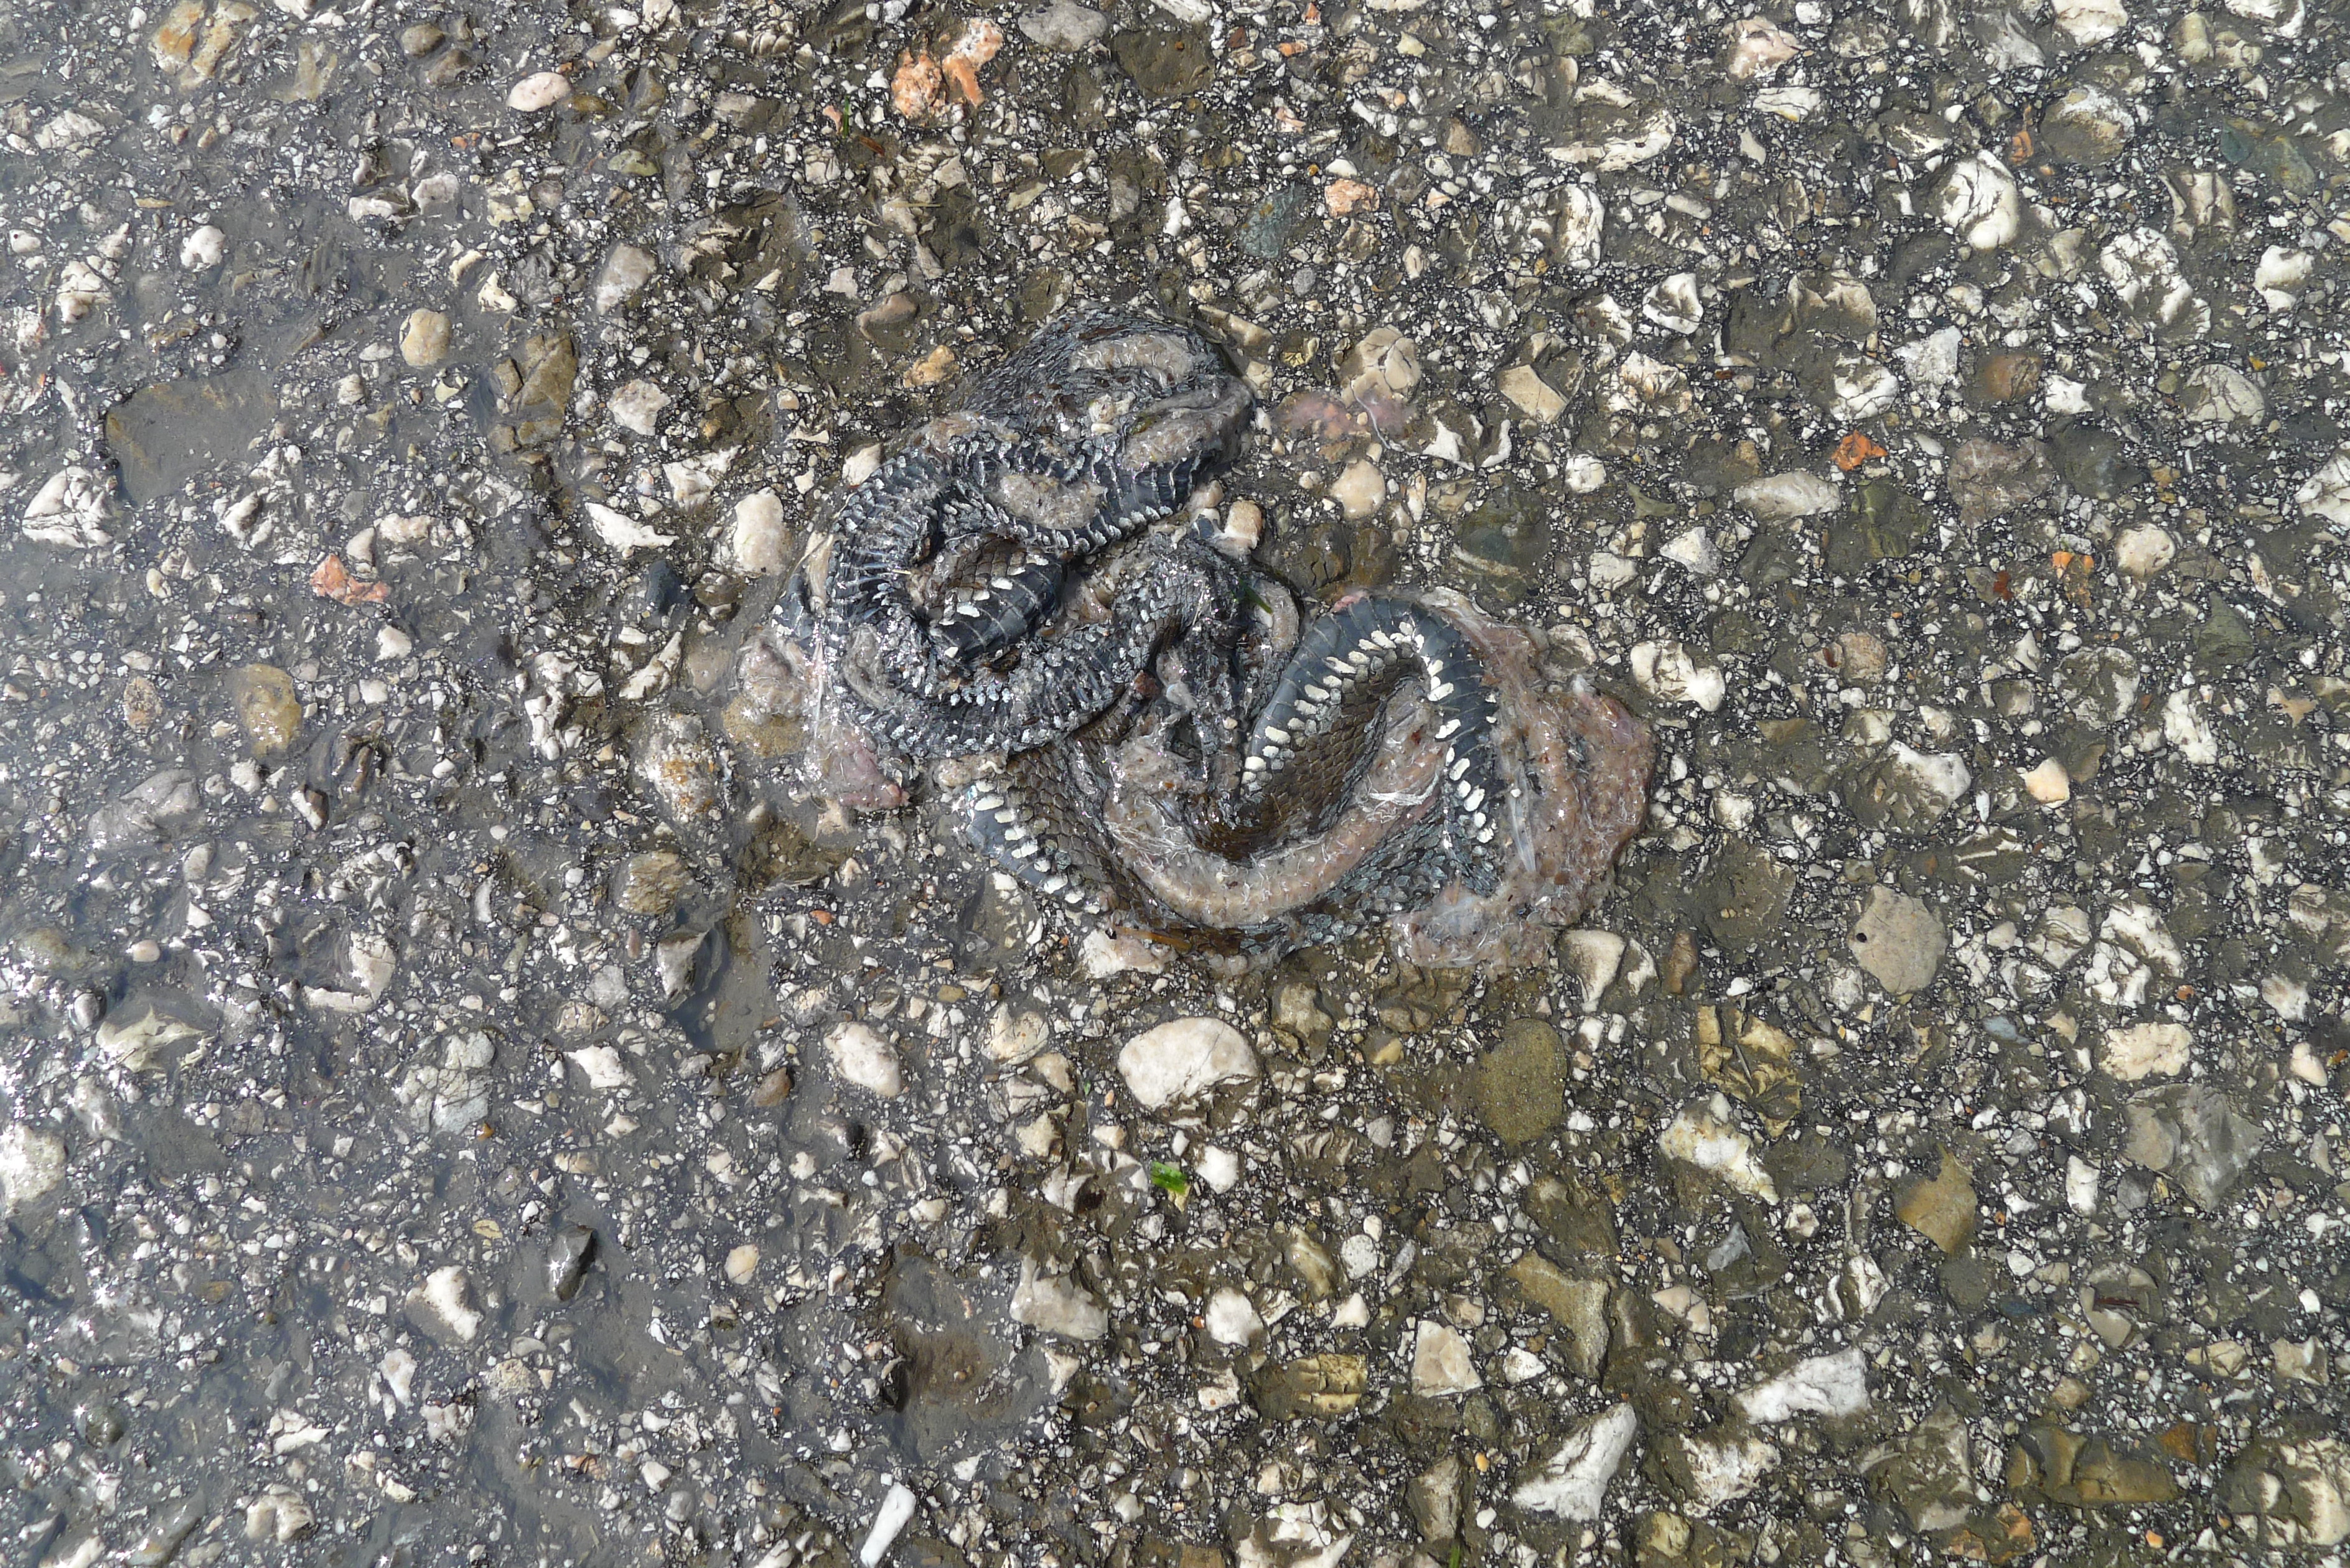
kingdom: Animalia
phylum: Chordata
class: Squamata
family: Colubridae
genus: Natrix
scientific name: Natrix natrix
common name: Grass snake
